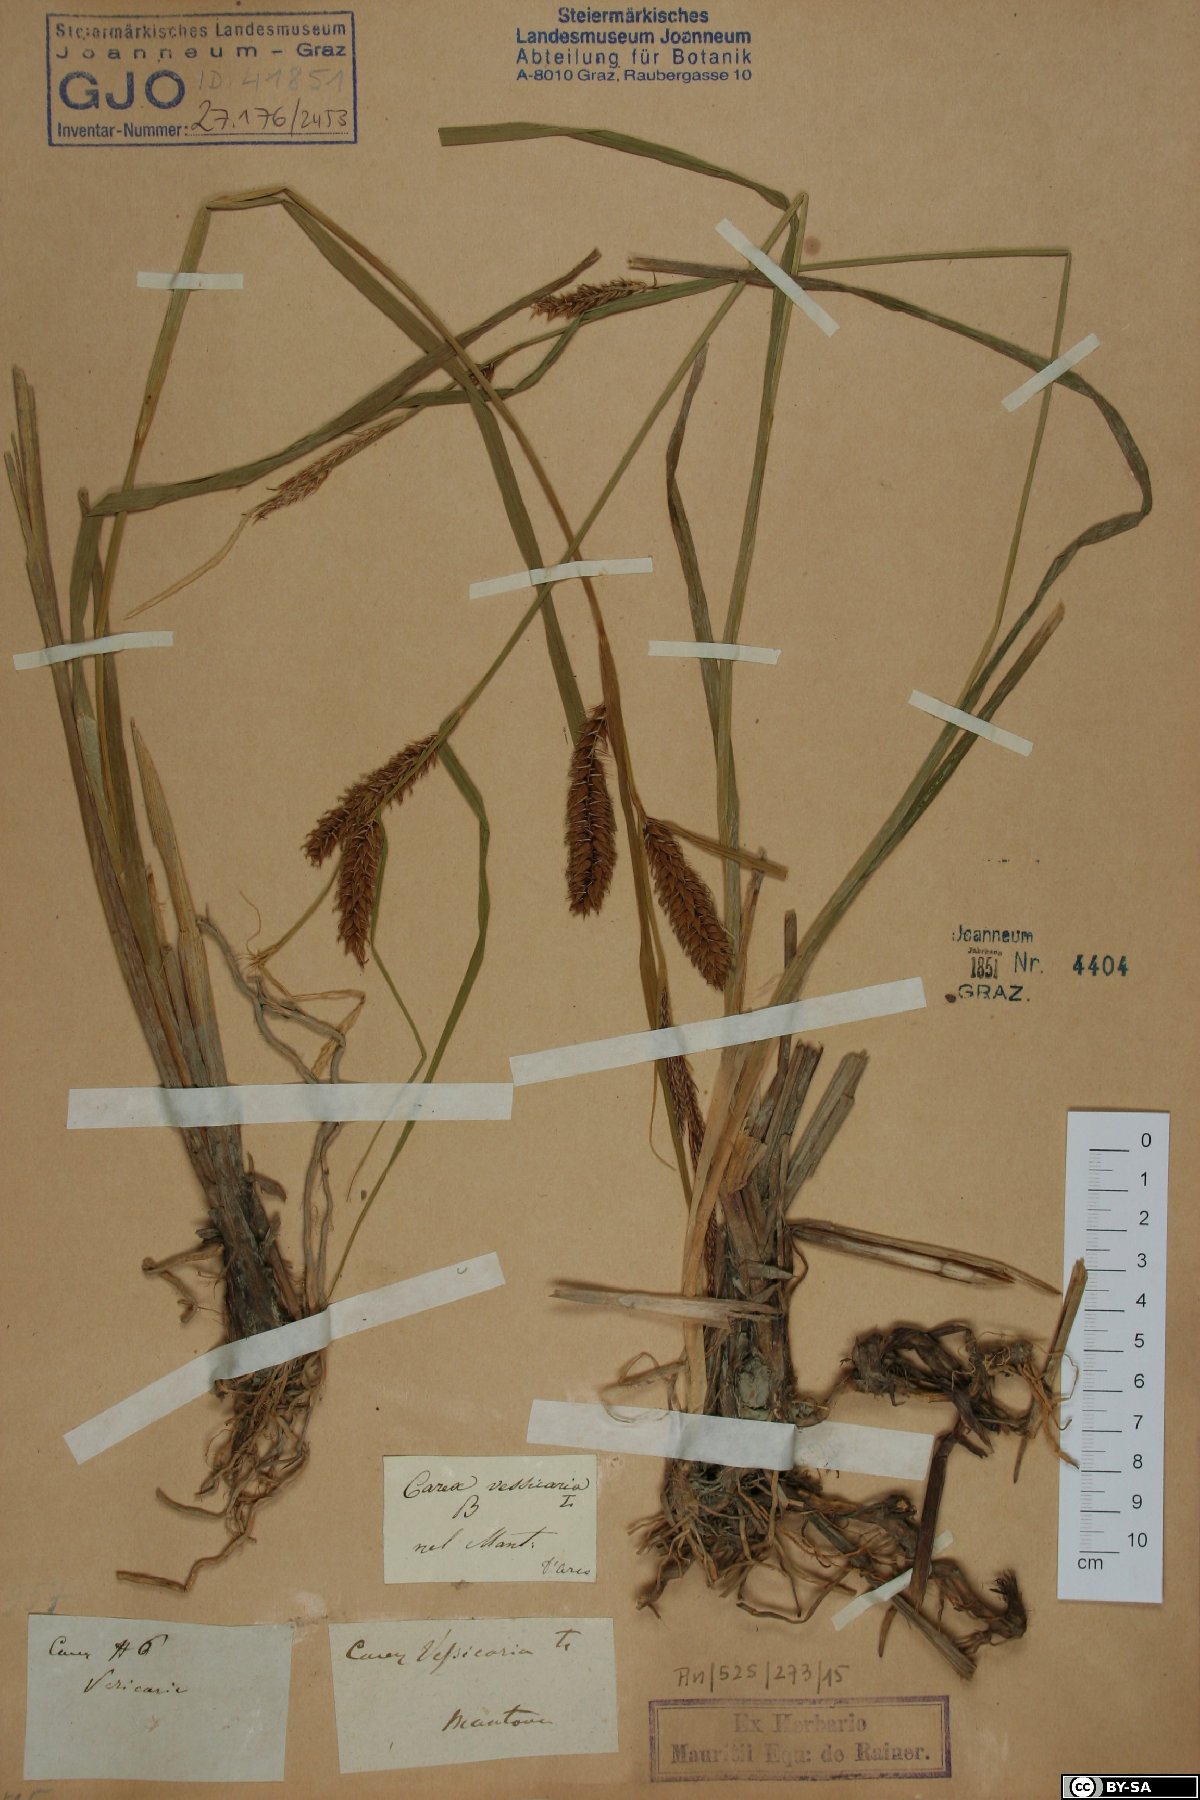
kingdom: Plantae
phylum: Tracheophyta
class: Liliopsida
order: Poales
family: Cyperaceae
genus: Carex
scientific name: Carex vesicaria
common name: Bladder-sedge
